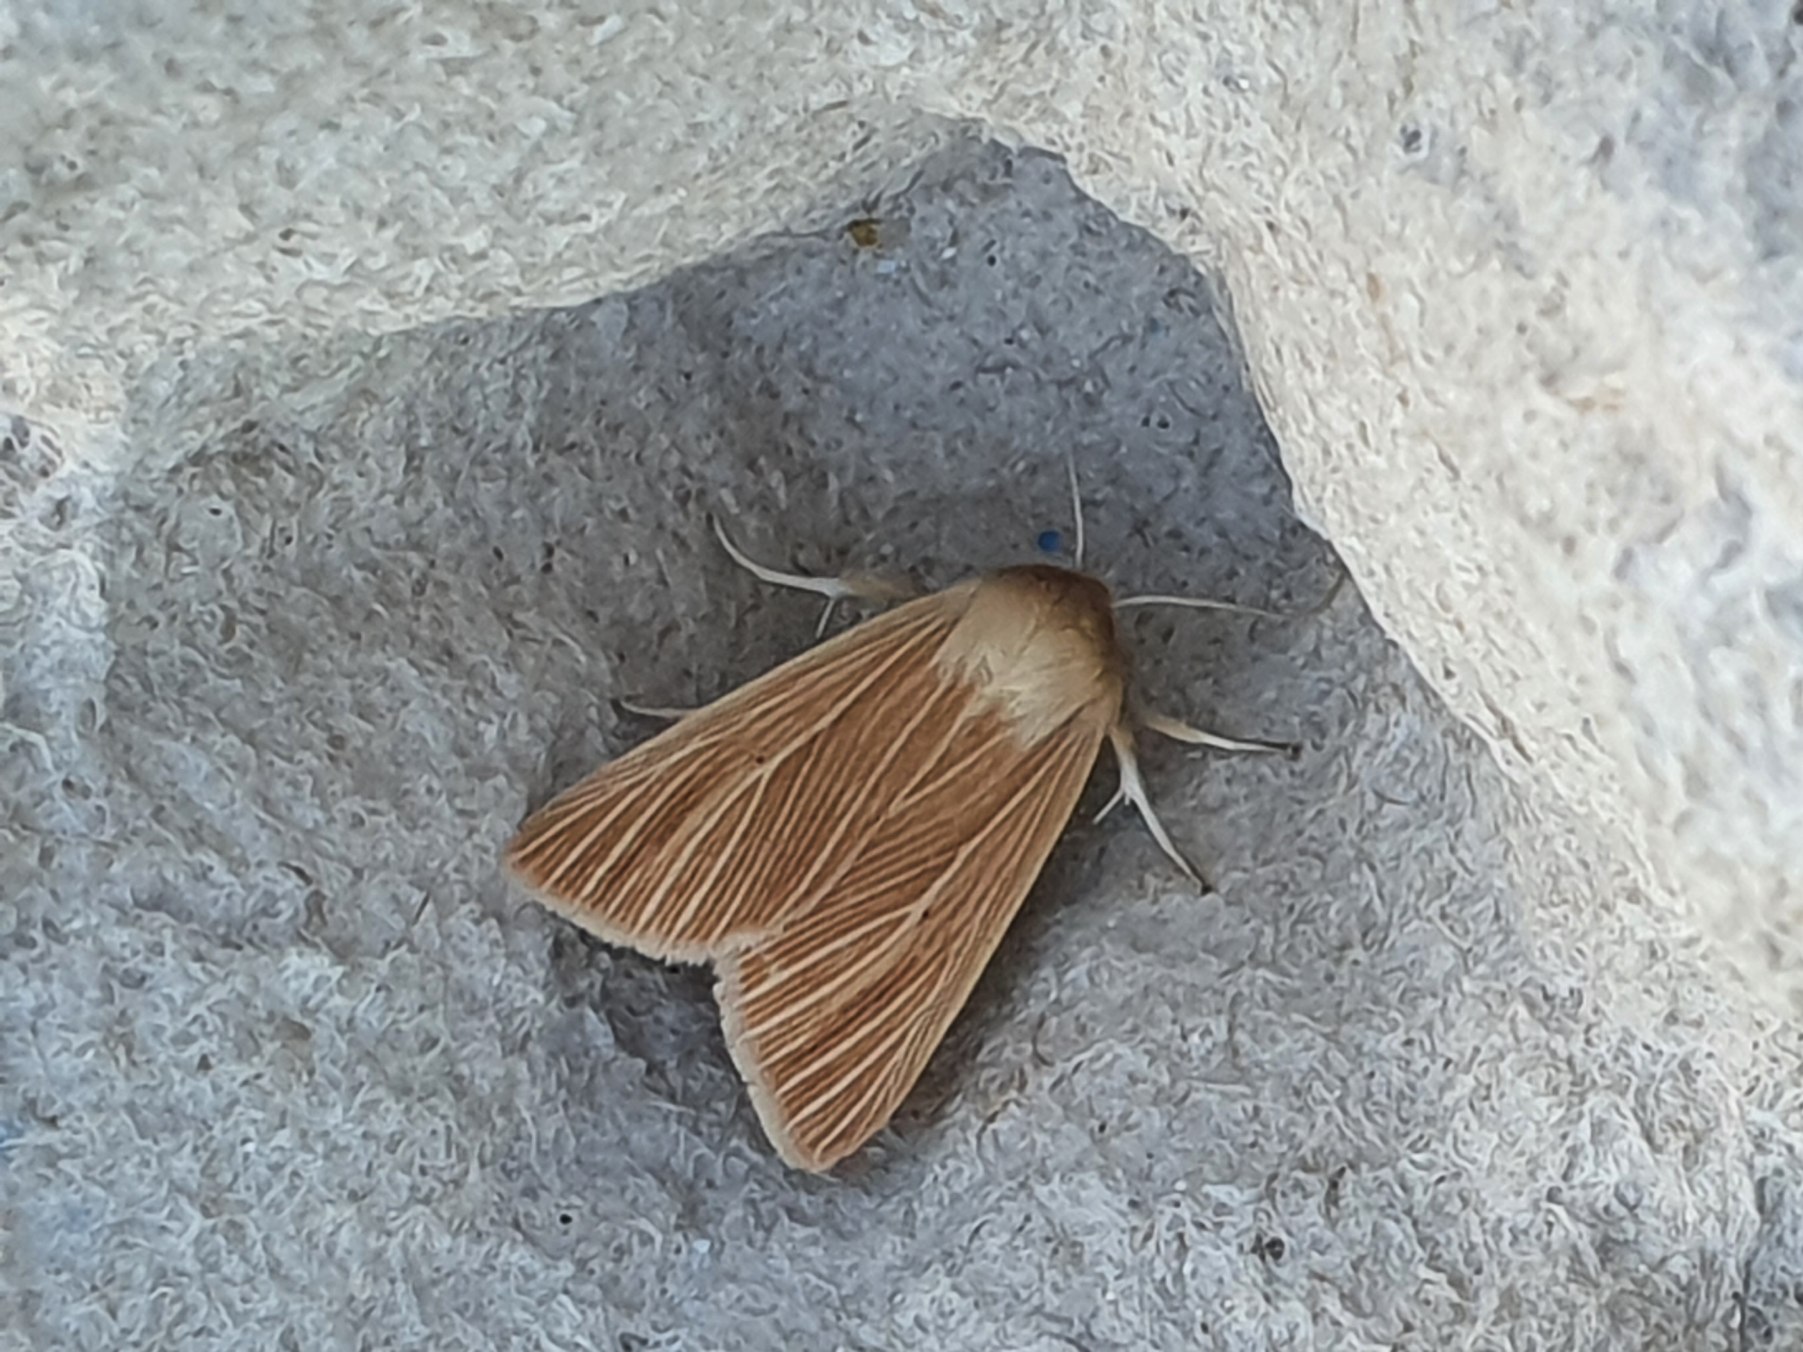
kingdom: Animalia
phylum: Arthropoda
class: Insecta
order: Lepidoptera
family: Noctuidae
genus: Mythimna
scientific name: Mythimna pallens
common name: Halmugle
